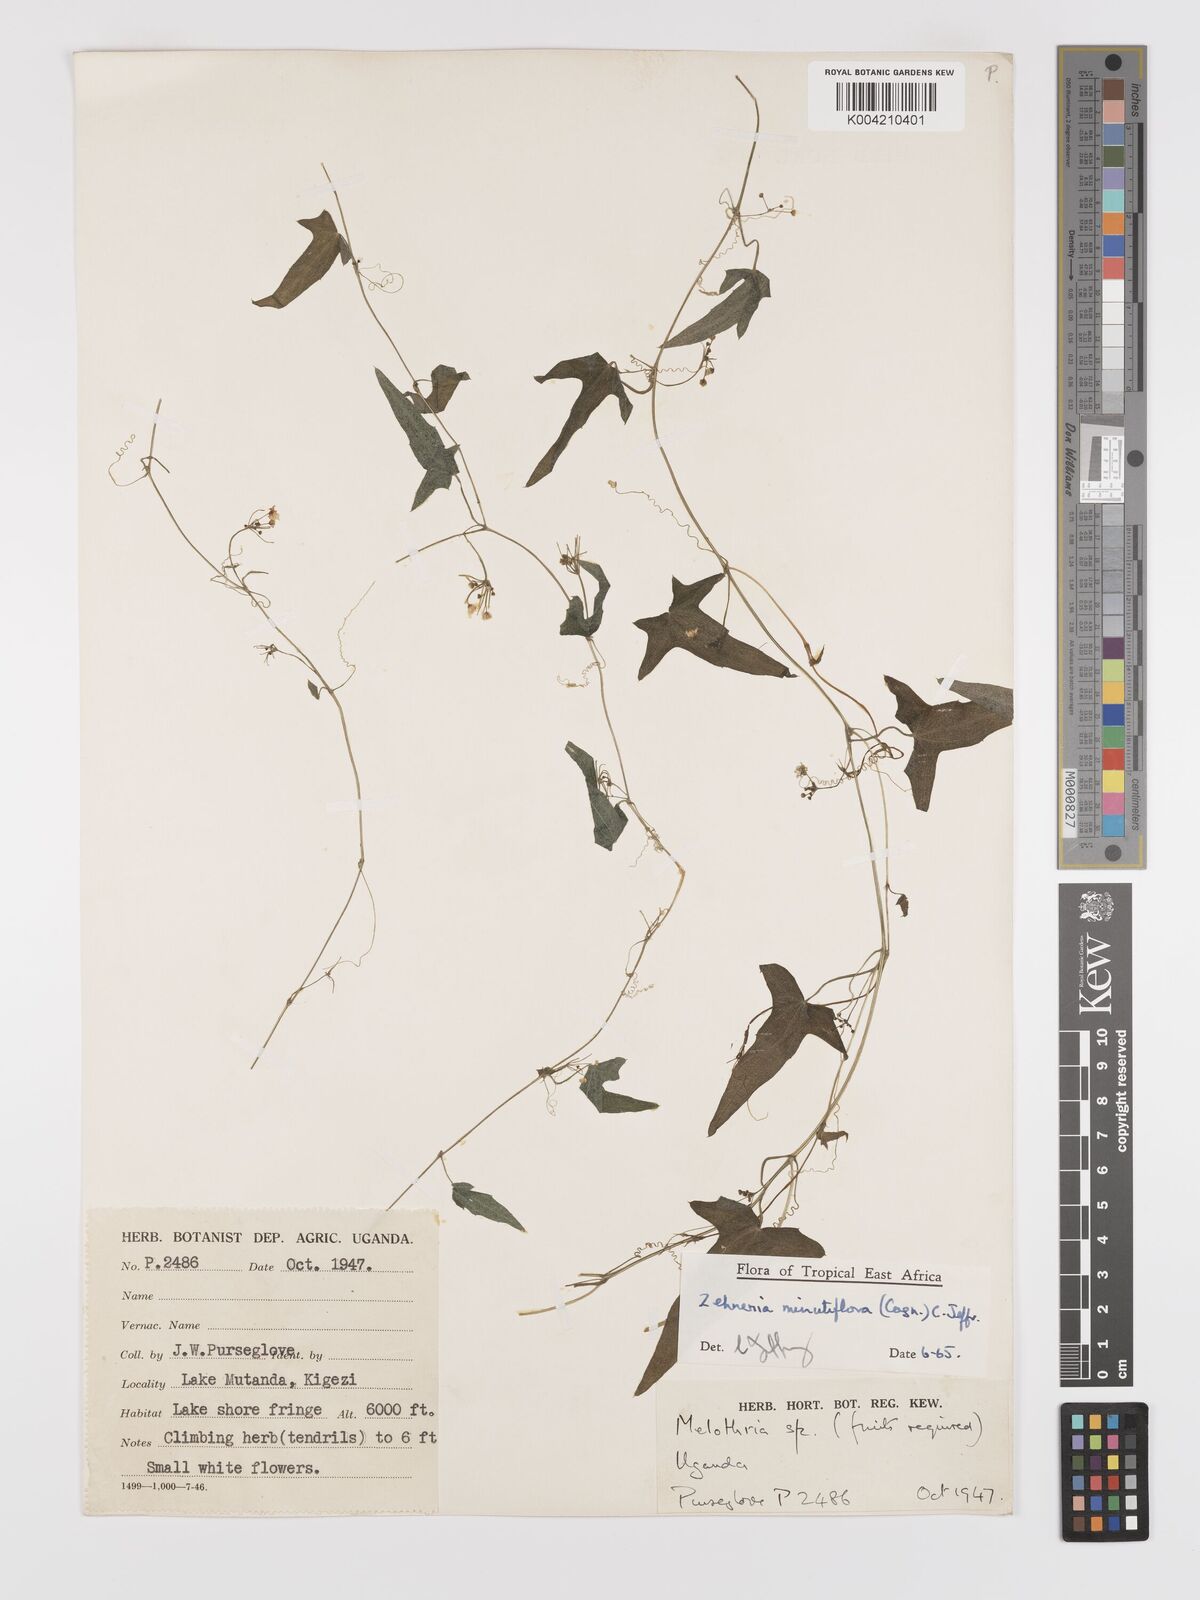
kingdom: Plantae
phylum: Tracheophyta
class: Magnoliopsida
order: Cucurbitales
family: Cucurbitaceae
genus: Zehneria
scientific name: Zehneria minutiflora
